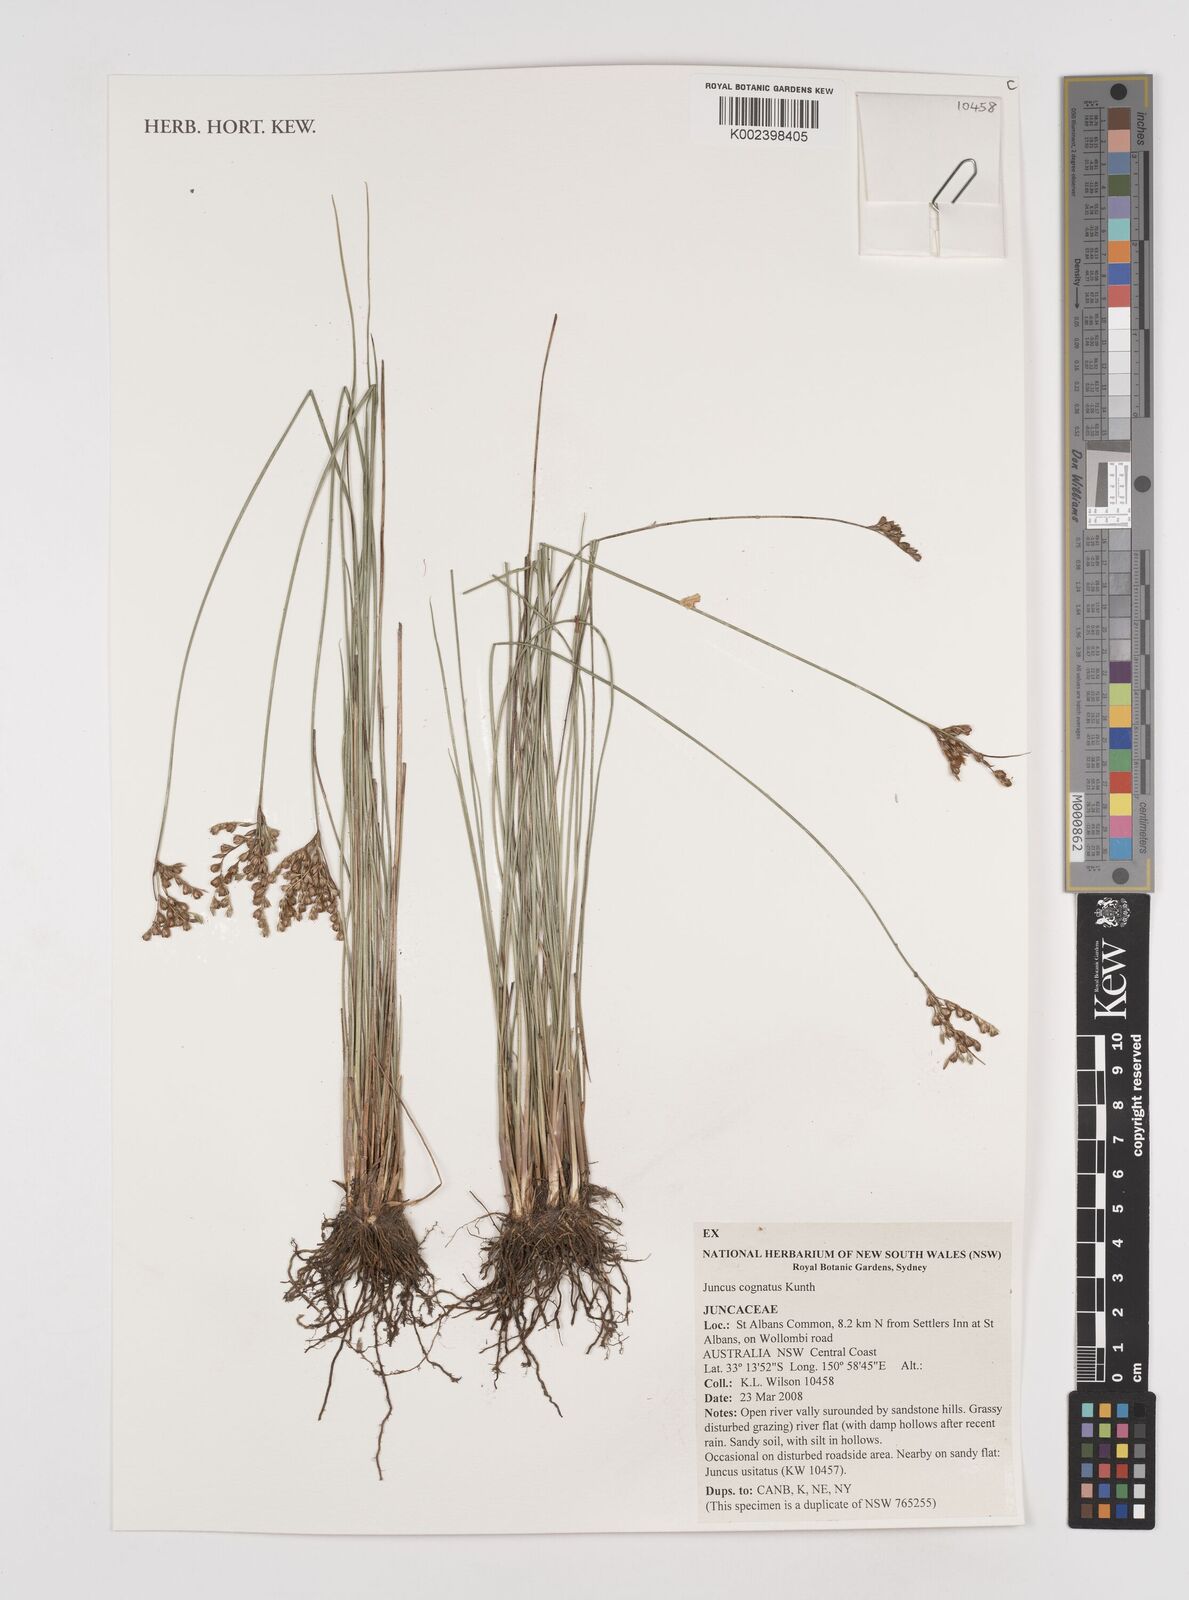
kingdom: Plantae
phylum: Tracheophyta
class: Liliopsida
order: Poales
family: Juncaceae
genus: Juncus
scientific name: Juncus dichotomus
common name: Forked rush
